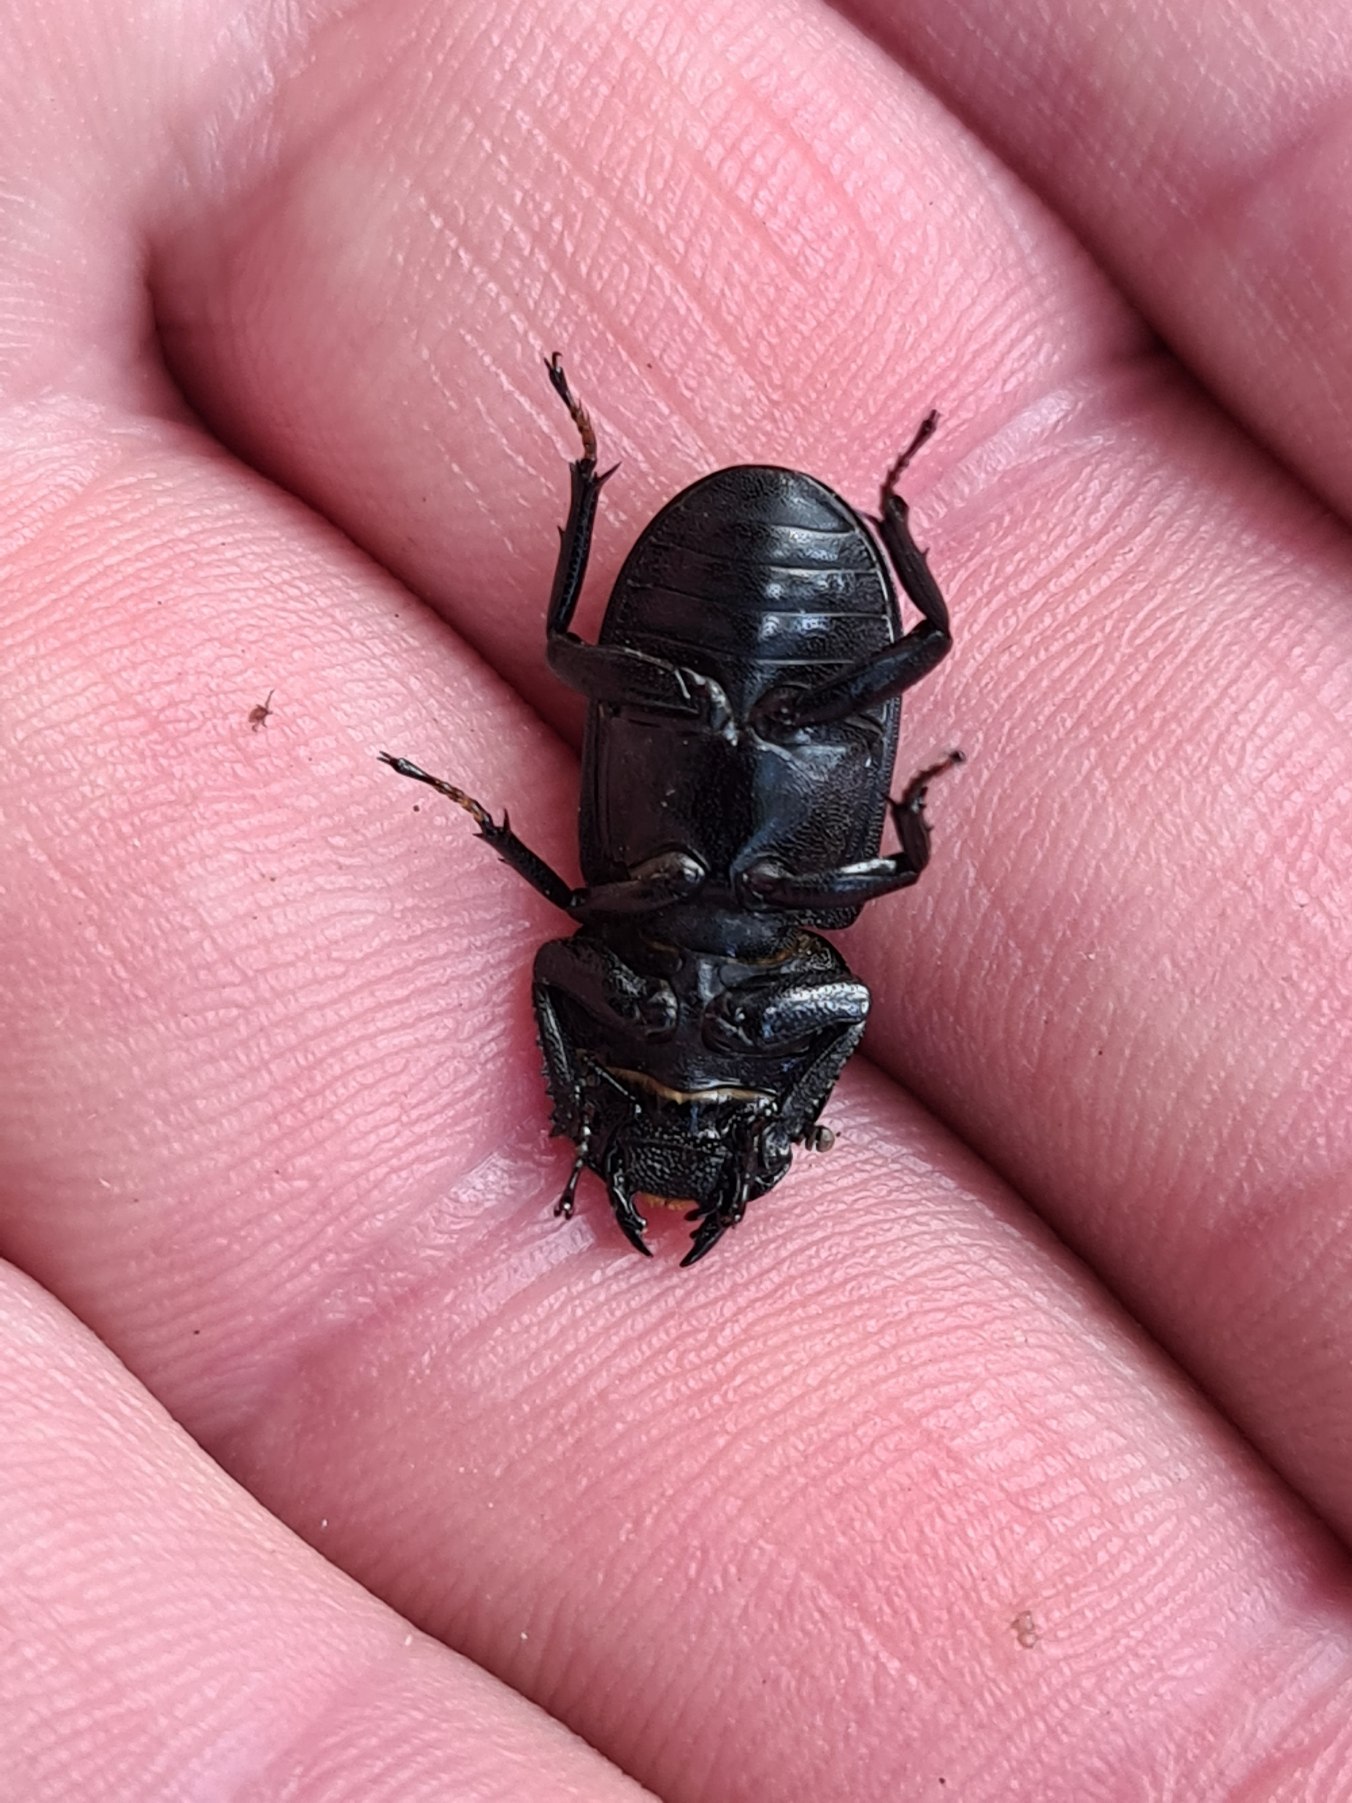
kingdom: Animalia
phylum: Arthropoda
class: Insecta
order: Coleoptera
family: Lucanidae
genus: Dorcus
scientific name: Dorcus parallelipipedus
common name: Bøghjort
